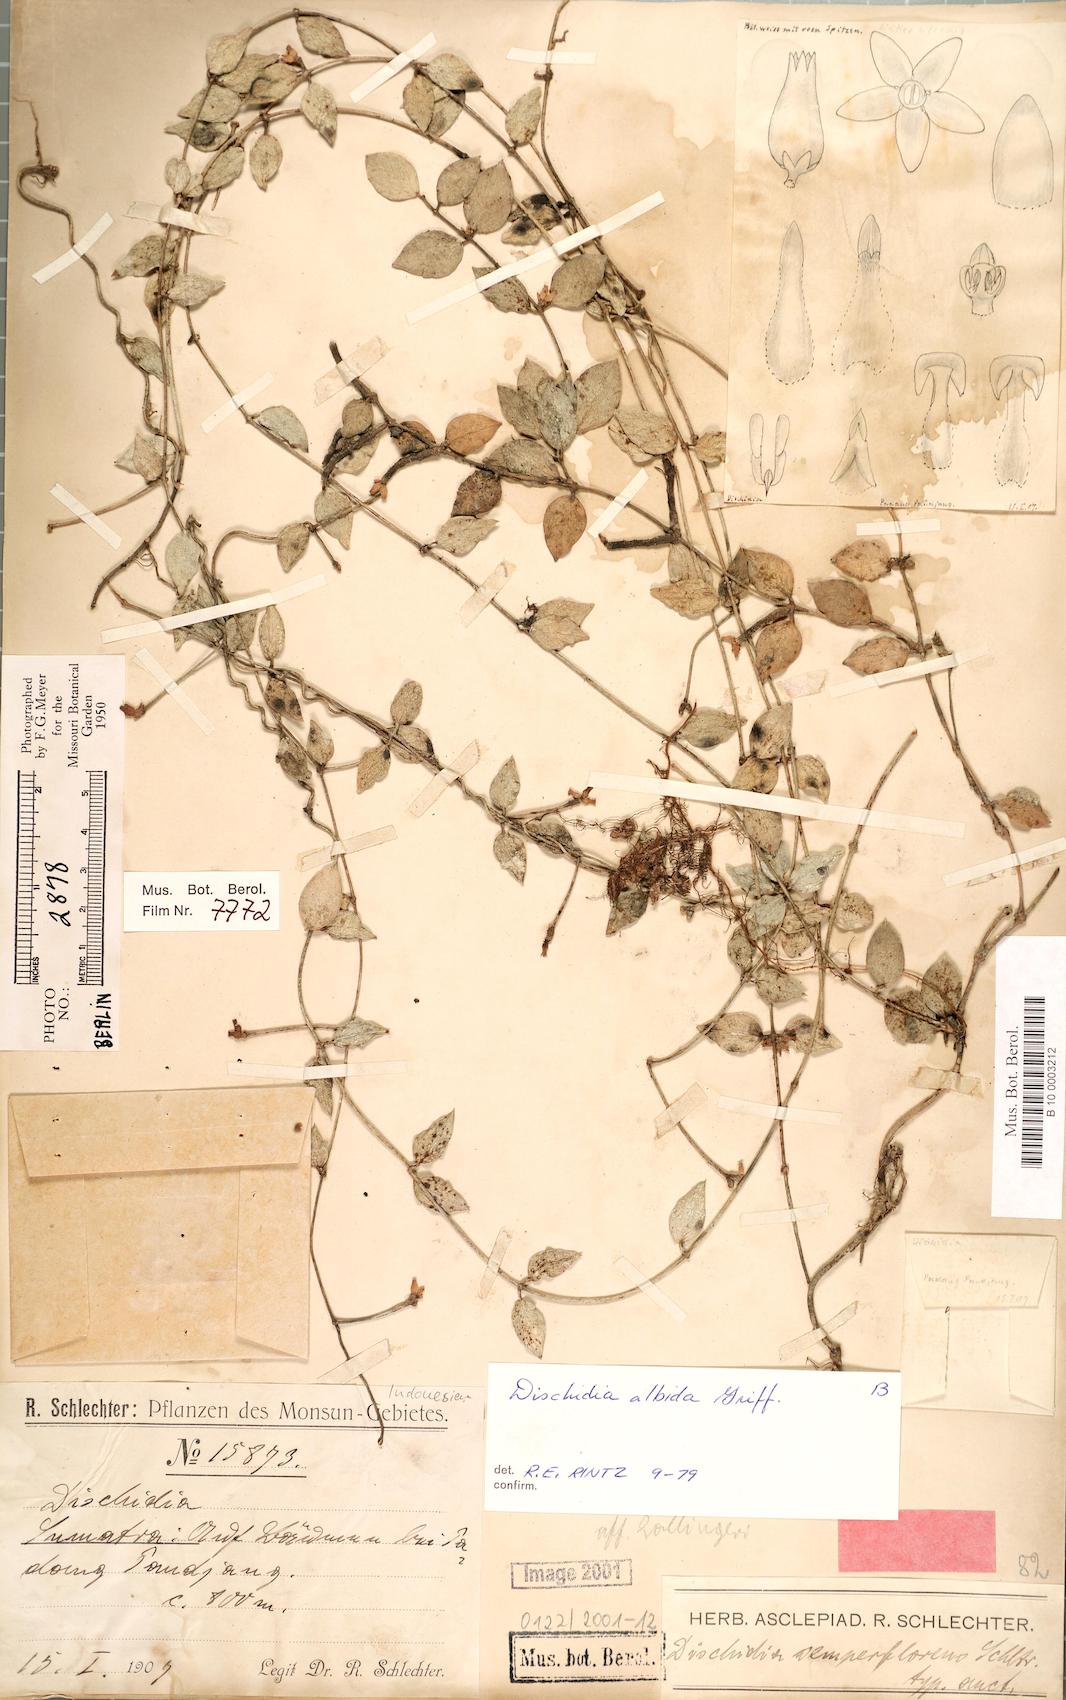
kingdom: Plantae
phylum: Tracheophyta
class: Magnoliopsida
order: Gentianales
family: Apocynaceae
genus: Dischidia
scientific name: Dischidia albida
